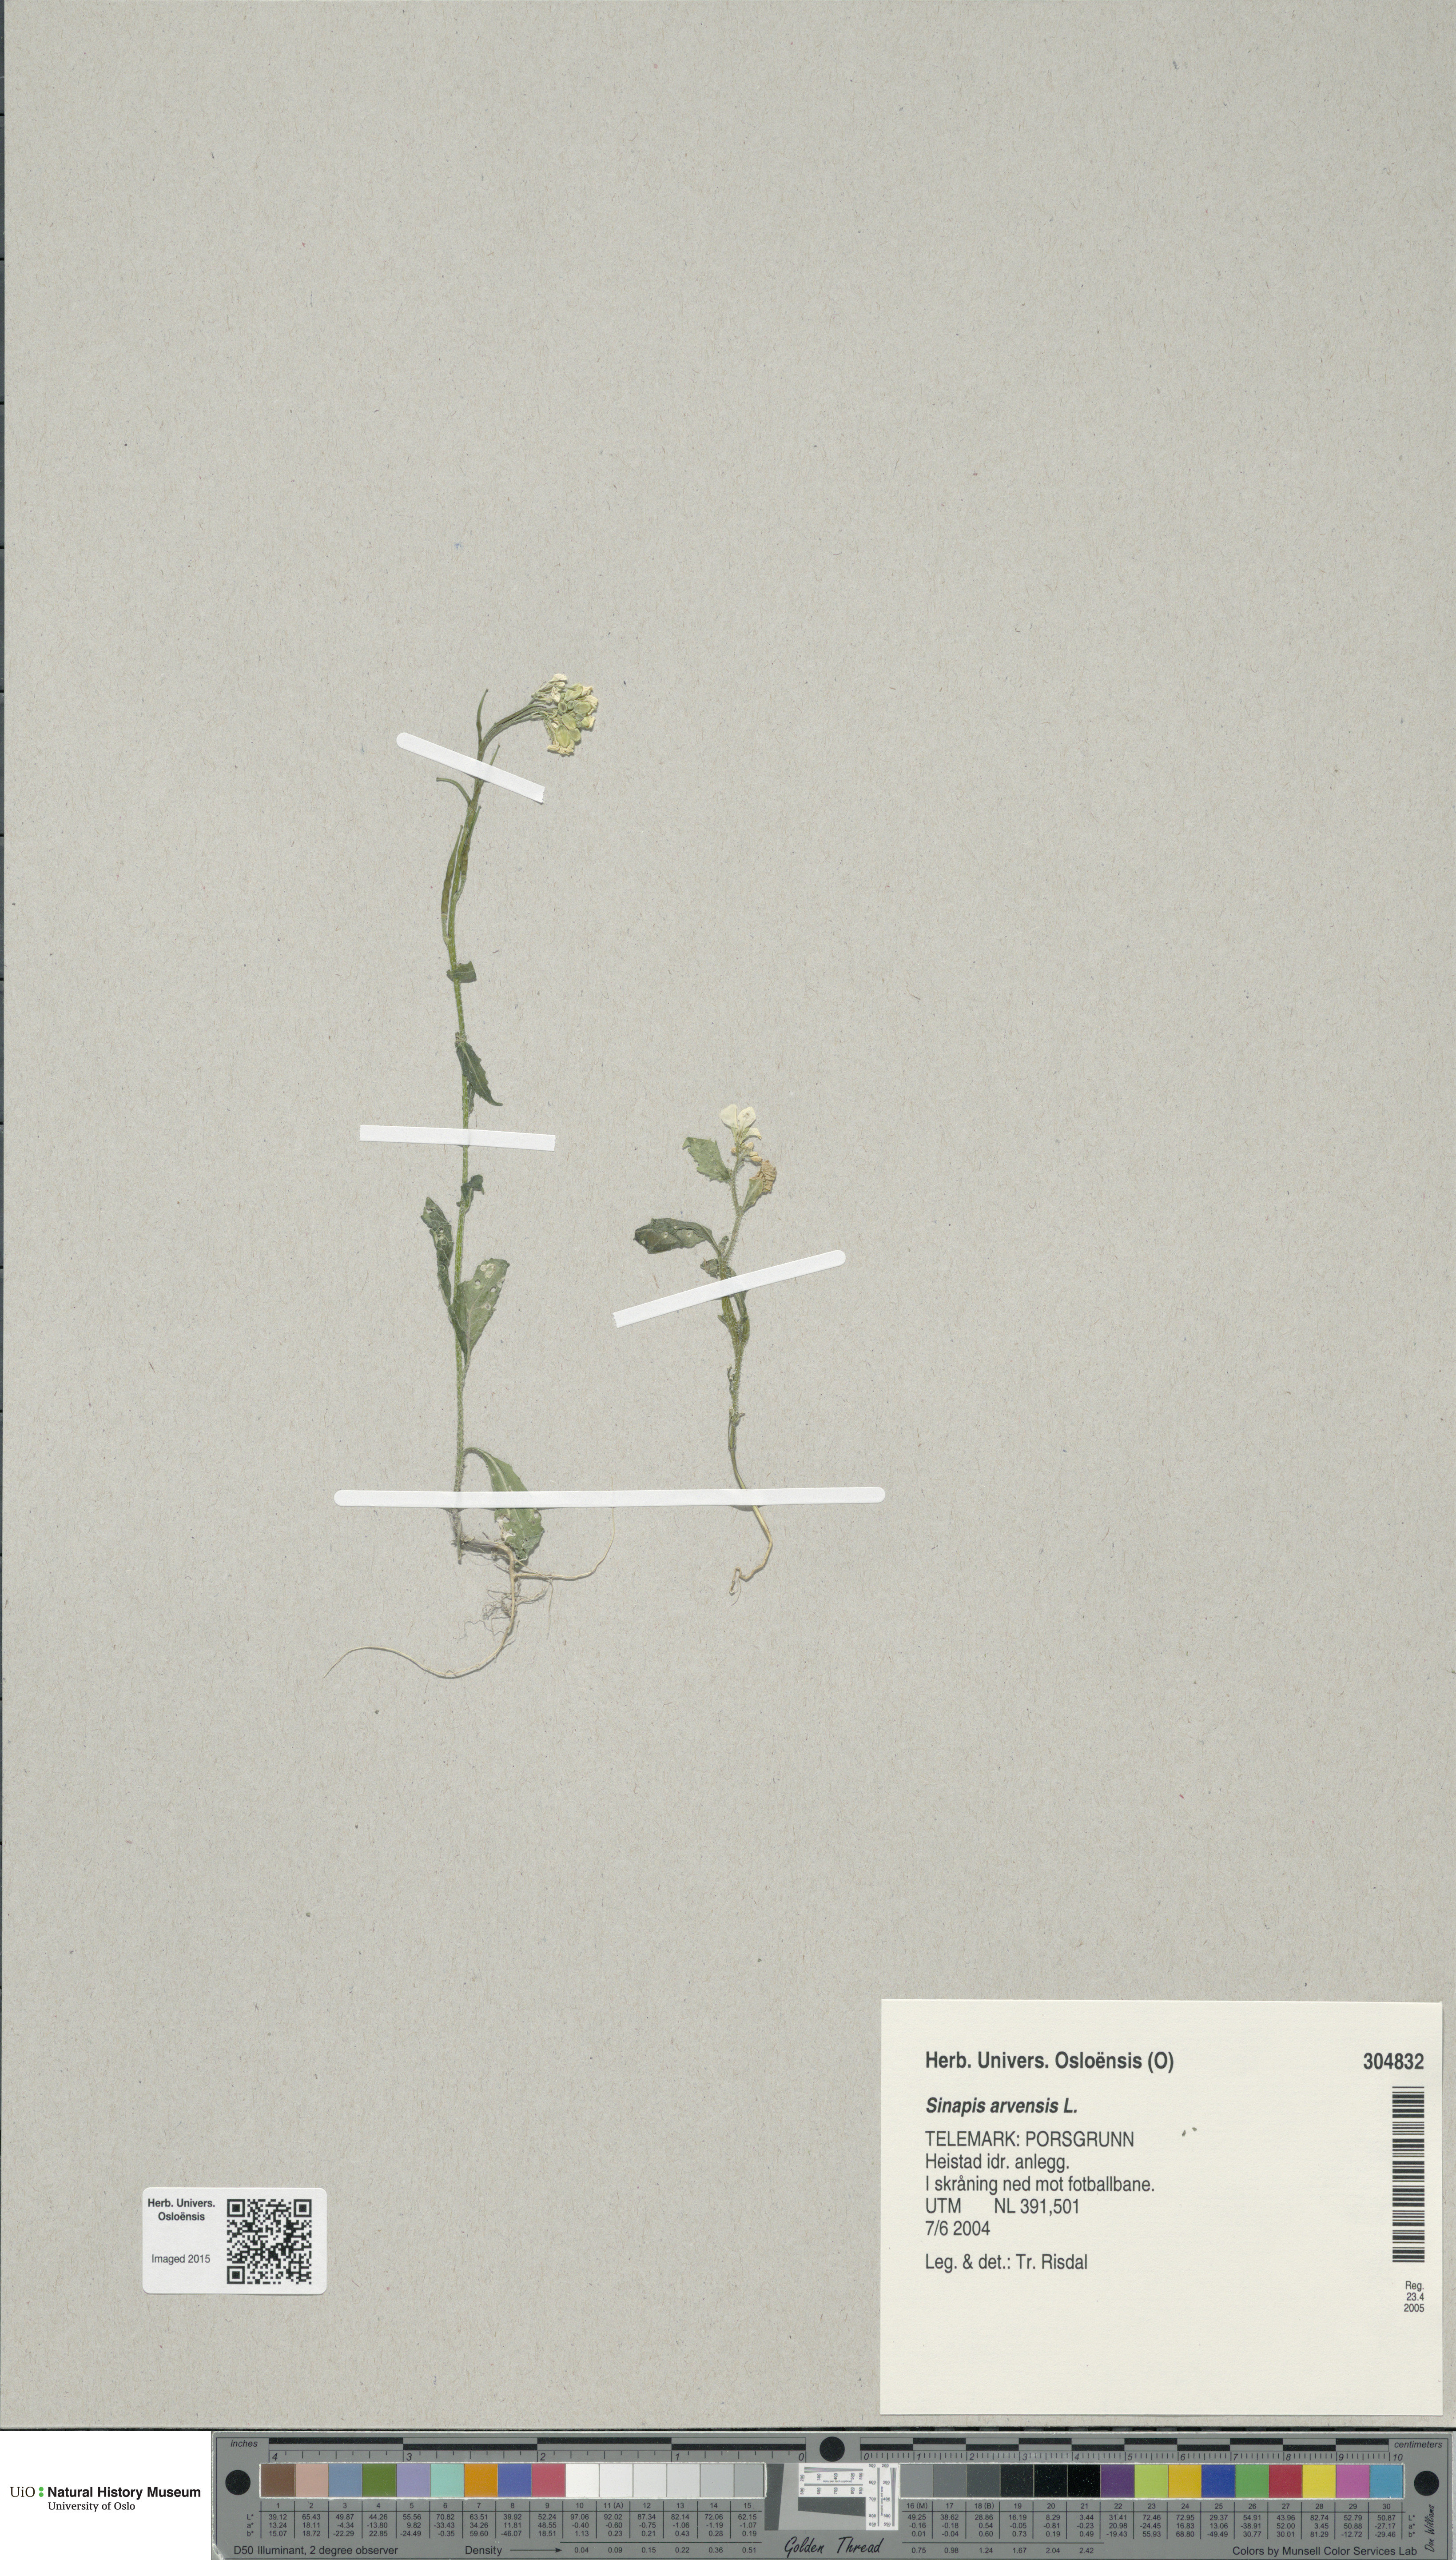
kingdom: Plantae
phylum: Tracheophyta
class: Magnoliopsida
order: Brassicales
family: Brassicaceae
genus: Sinapis
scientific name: Sinapis arvensis
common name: Charlock
